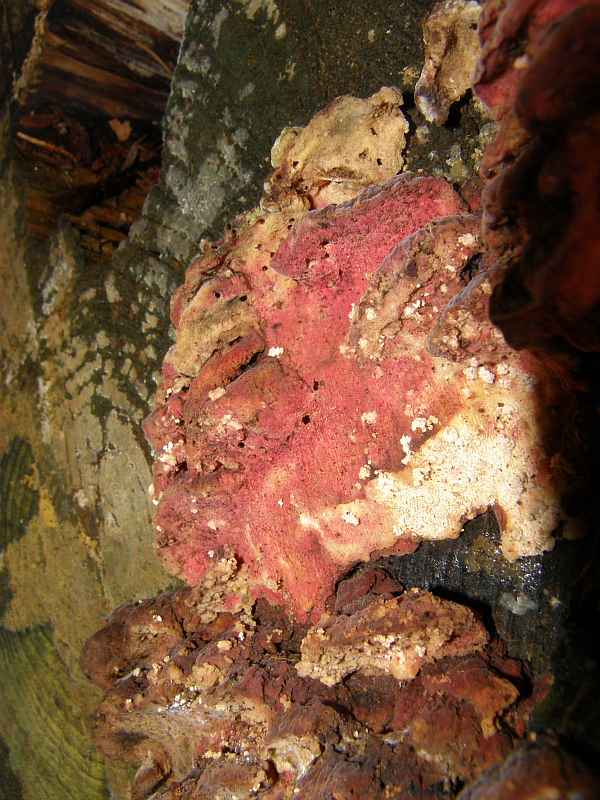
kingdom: Fungi
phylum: Ascomycota
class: Sordariomycetes
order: Hypocreales
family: Hypocreaceae
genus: Hypomyces
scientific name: Hypomyces aurantius
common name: almindelig snylteskorpe
